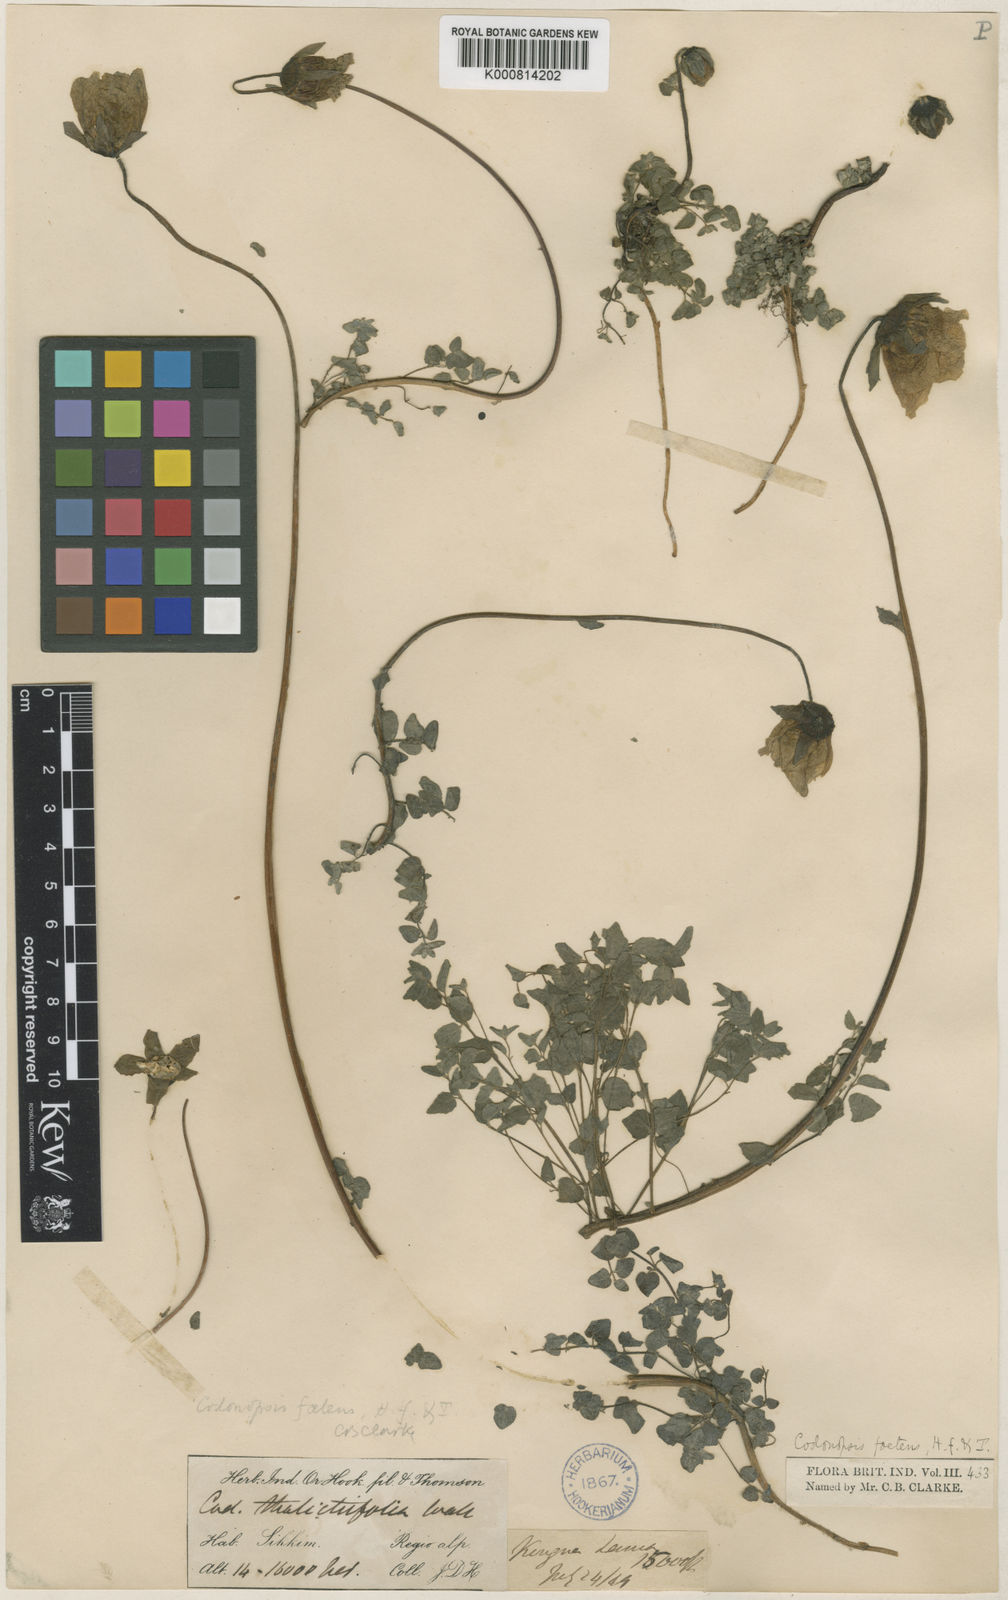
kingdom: Plantae
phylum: Tracheophyta
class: Magnoliopsida
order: Asterales
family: Campanulaceae
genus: Codonopsis
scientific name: Codonopsis foetens
